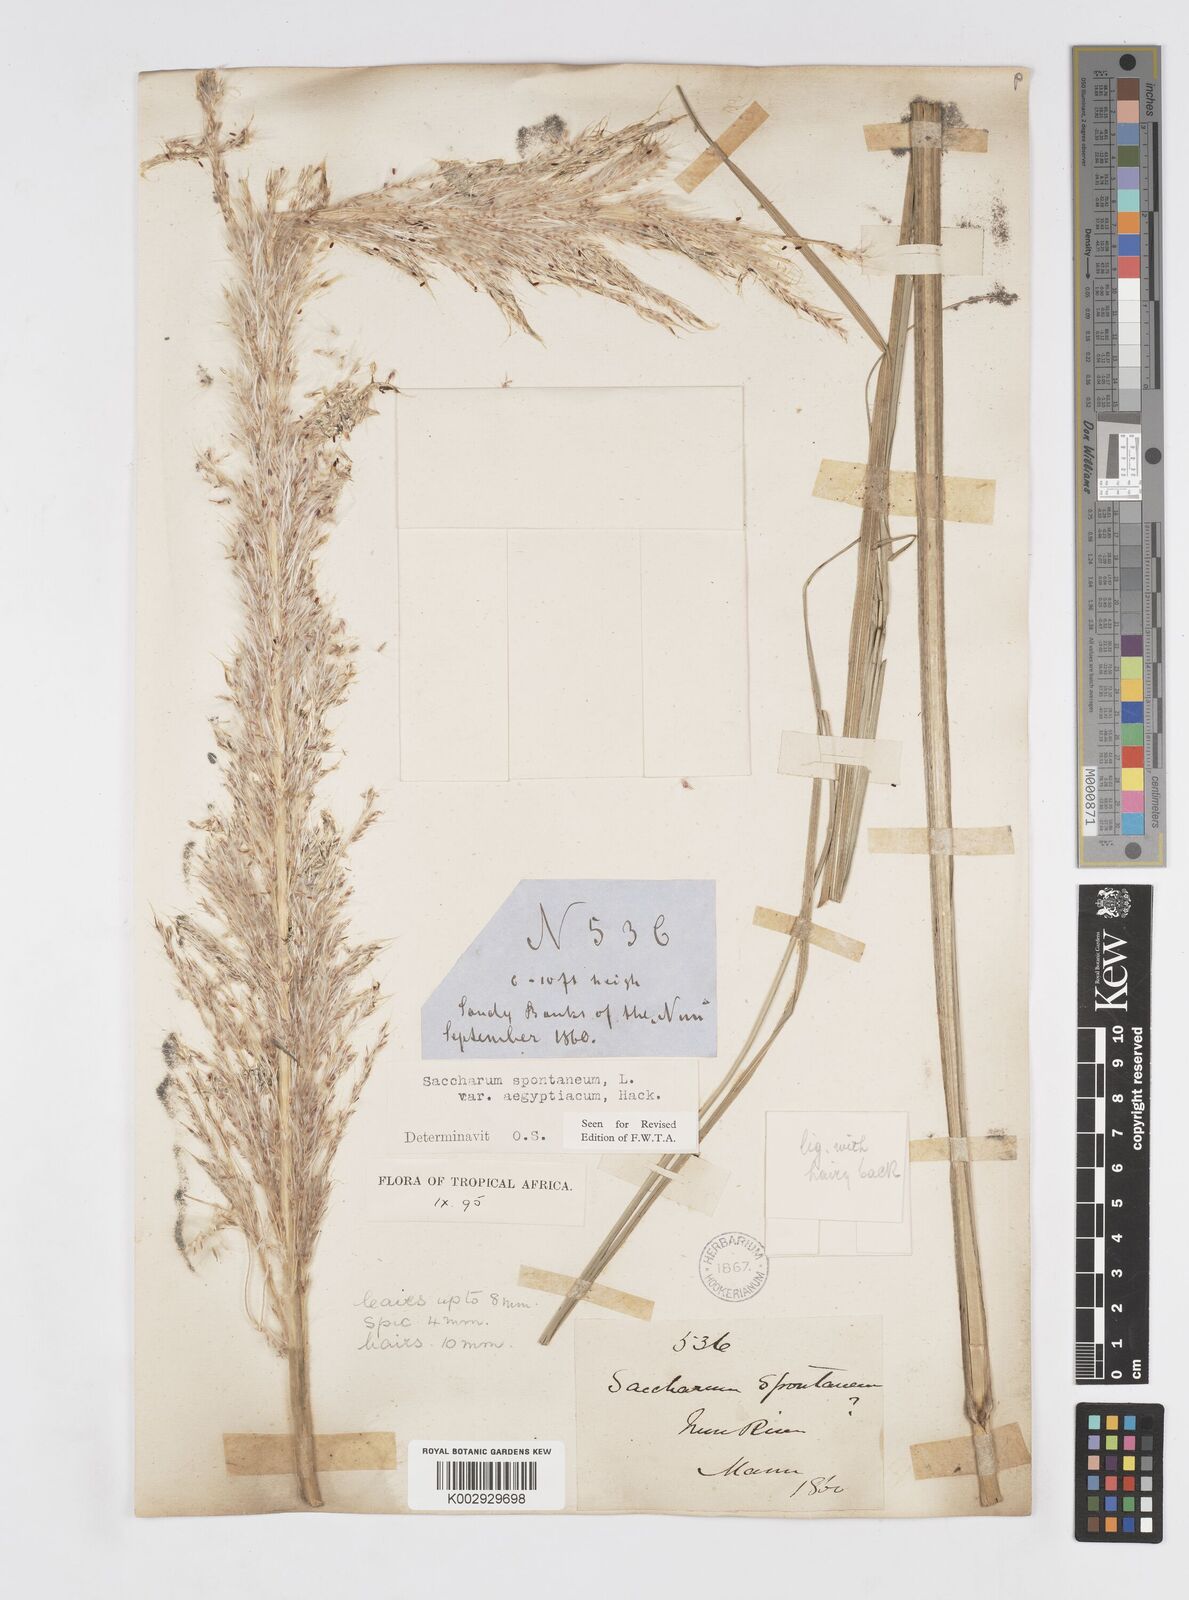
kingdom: Plantae
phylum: Tracheophyta
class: Liliopsida
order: Poales
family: Poaceae
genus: Saccharum
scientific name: Saccharum spontaneum
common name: Wild sugarcane
